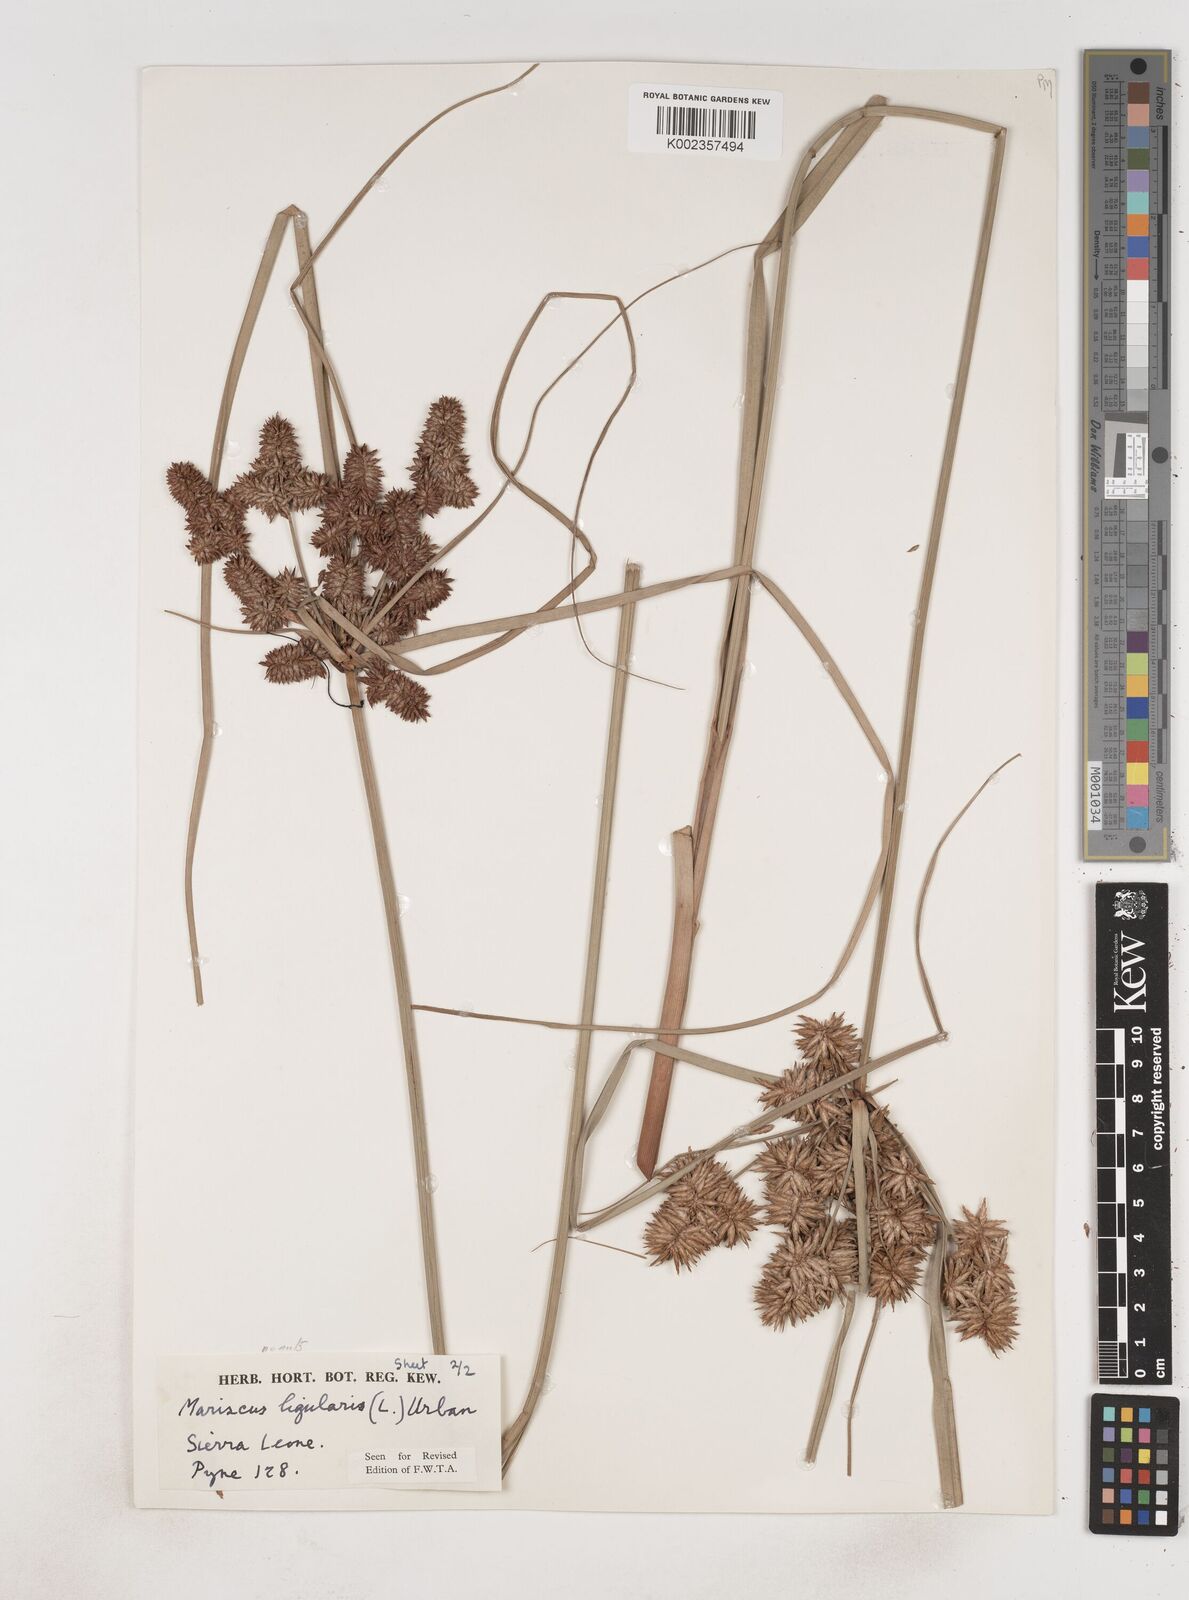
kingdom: Plantae
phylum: Tracheophyta
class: Liliopsida
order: Poales
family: Cyperaceae
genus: Cyperus
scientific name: Cyperus ligularis
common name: Swamp flat sedge
